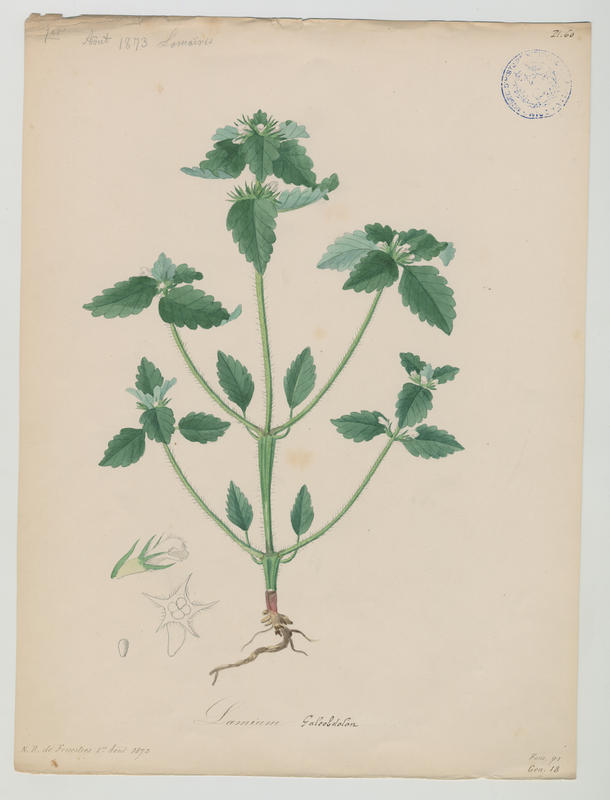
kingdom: Plantae
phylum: Tracheophyta
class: Magnoliopsida
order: Lamiales
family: Lamiaceae
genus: Galeopsis
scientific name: Galeopsis tetrahit
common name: Common hemp-nettle
